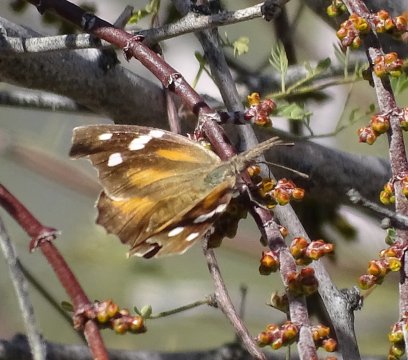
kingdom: Animalia
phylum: Arthropoda
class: Insecta
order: Lepidoptera
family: Nymphalidae
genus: Libytheana
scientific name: Libytheana carinenta
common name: American Snout
